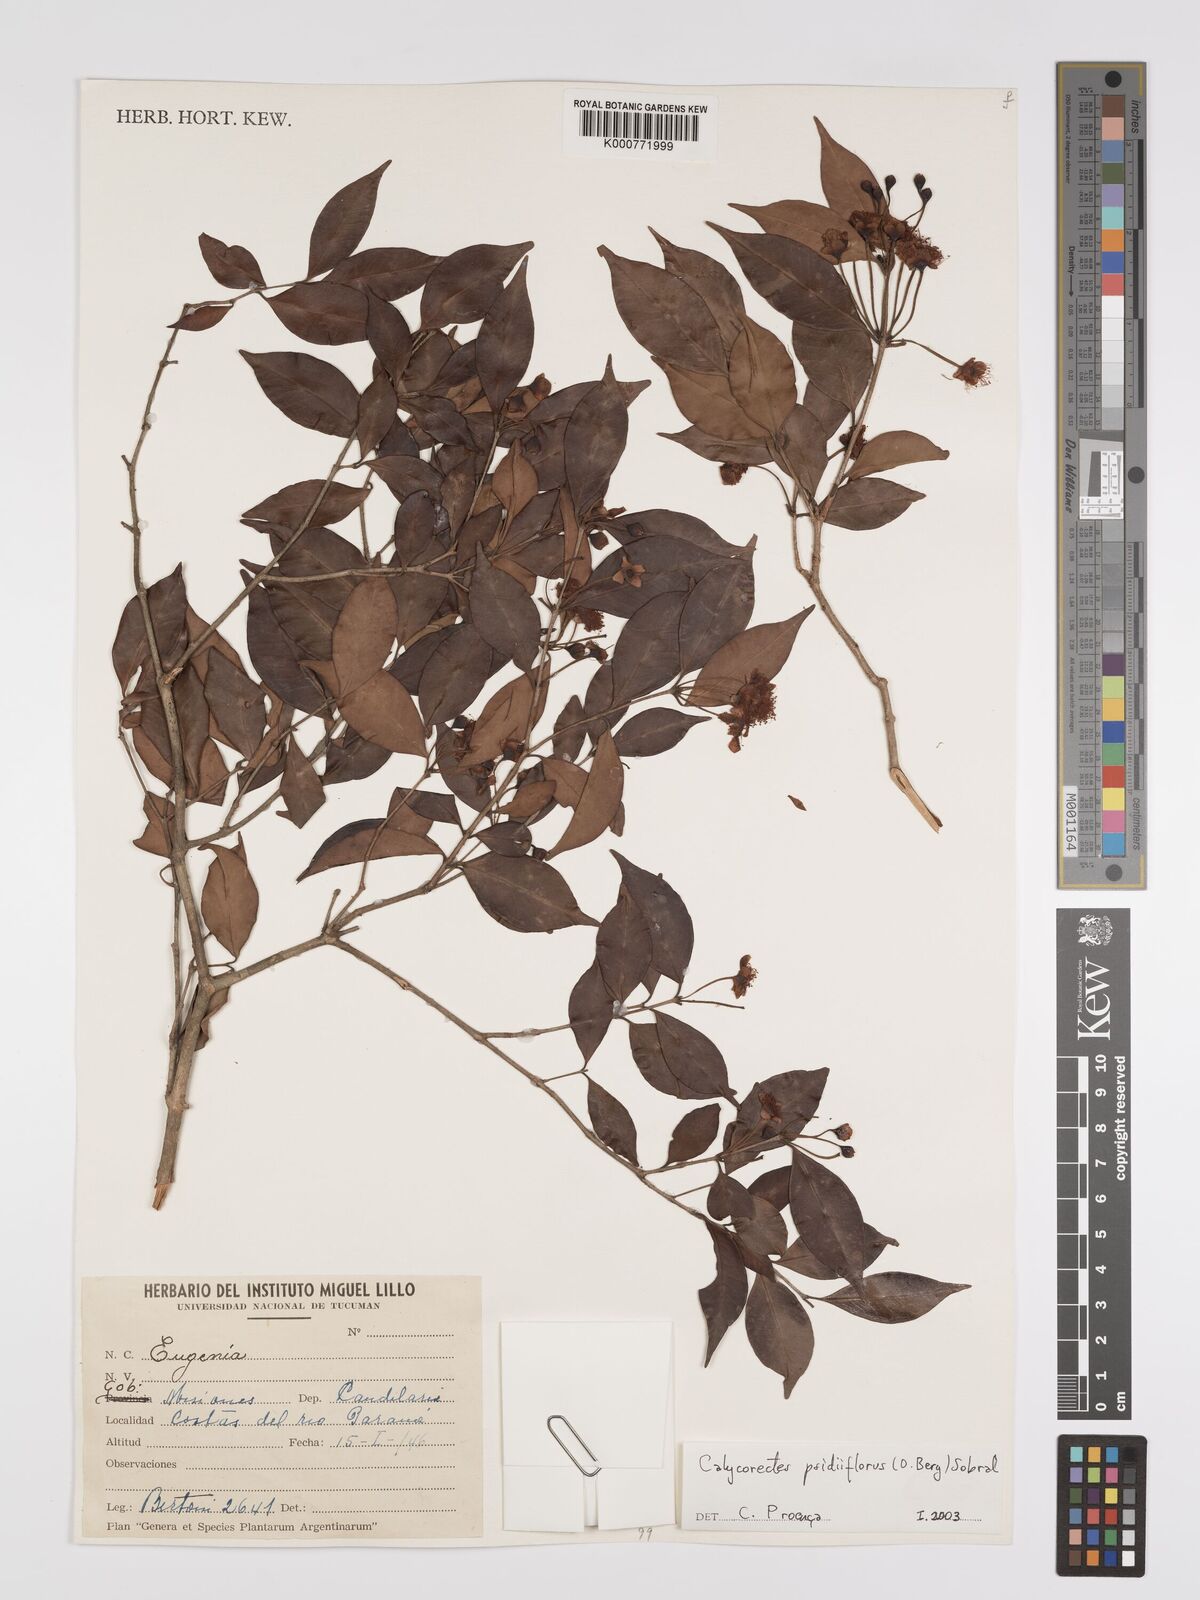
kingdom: Plantae
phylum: Tracheophyta
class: Magnoliopsida
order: Myrtales
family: Myrtaceae
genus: Eugenia
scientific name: Eugenia psidiiflora
